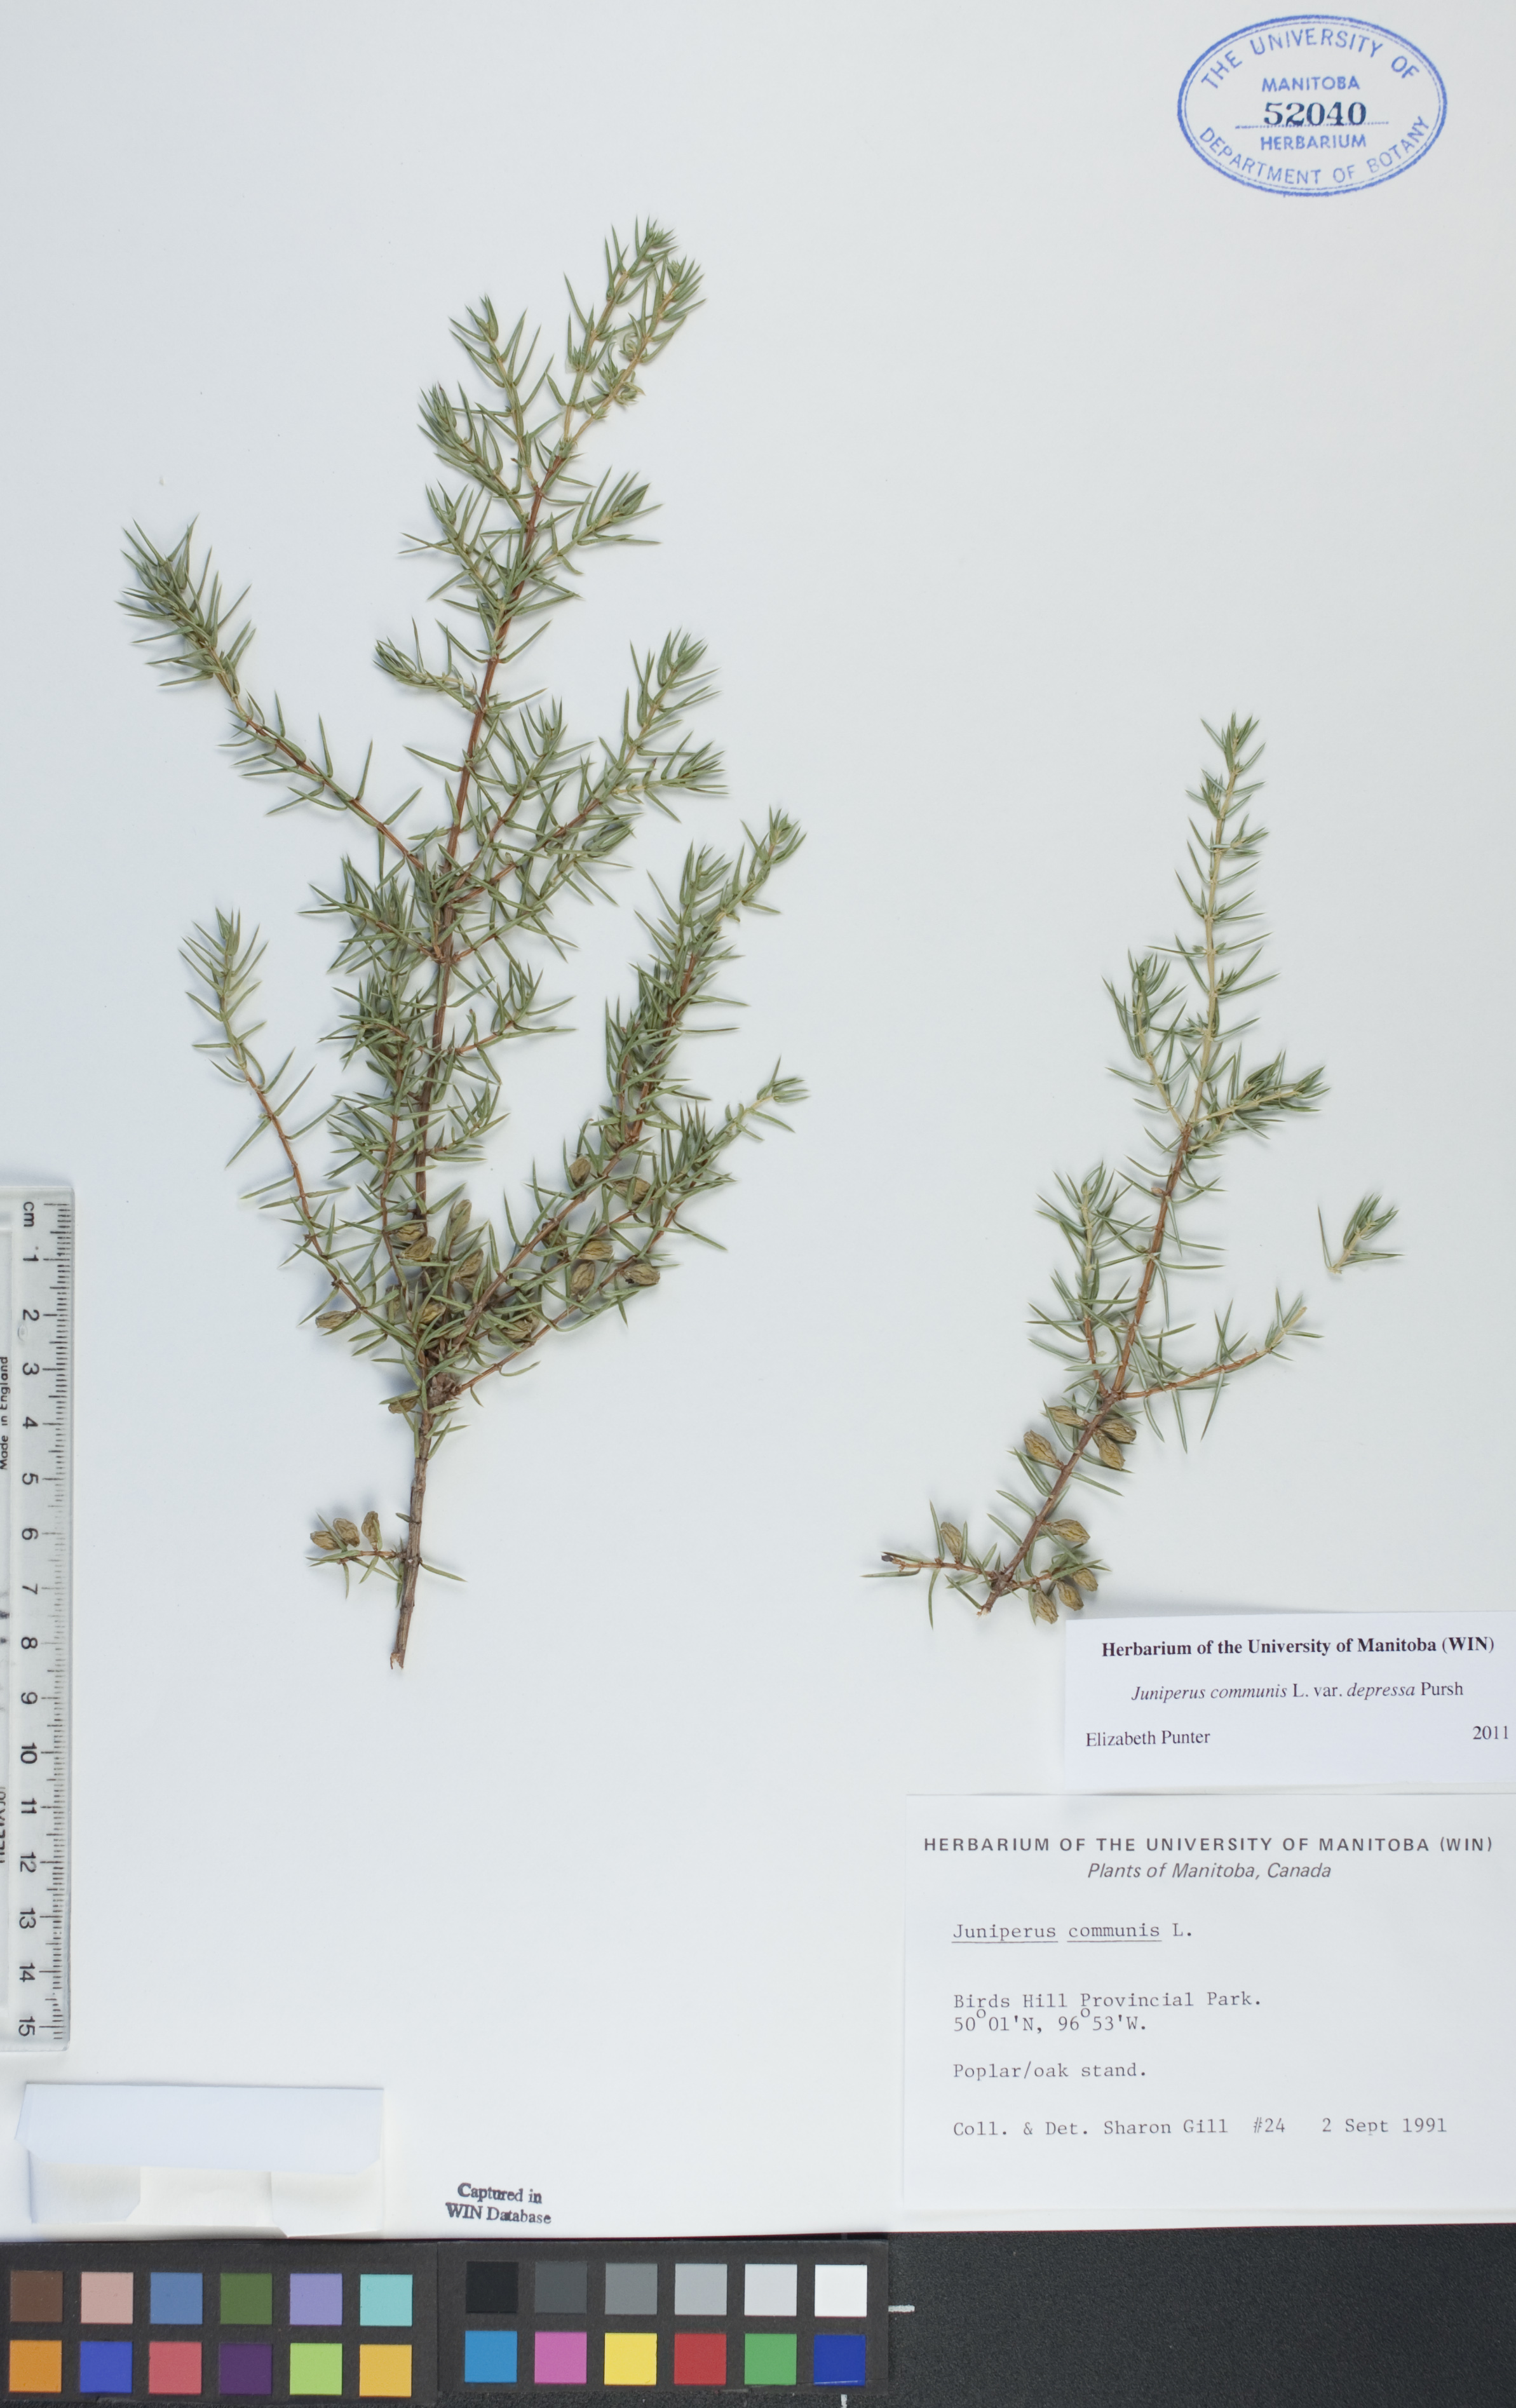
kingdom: Plantae
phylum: Tracheophyta
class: Pinopsida
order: Pinales
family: Cupressaceae
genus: Juniperus
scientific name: Juniperus communis
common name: Common juniper
